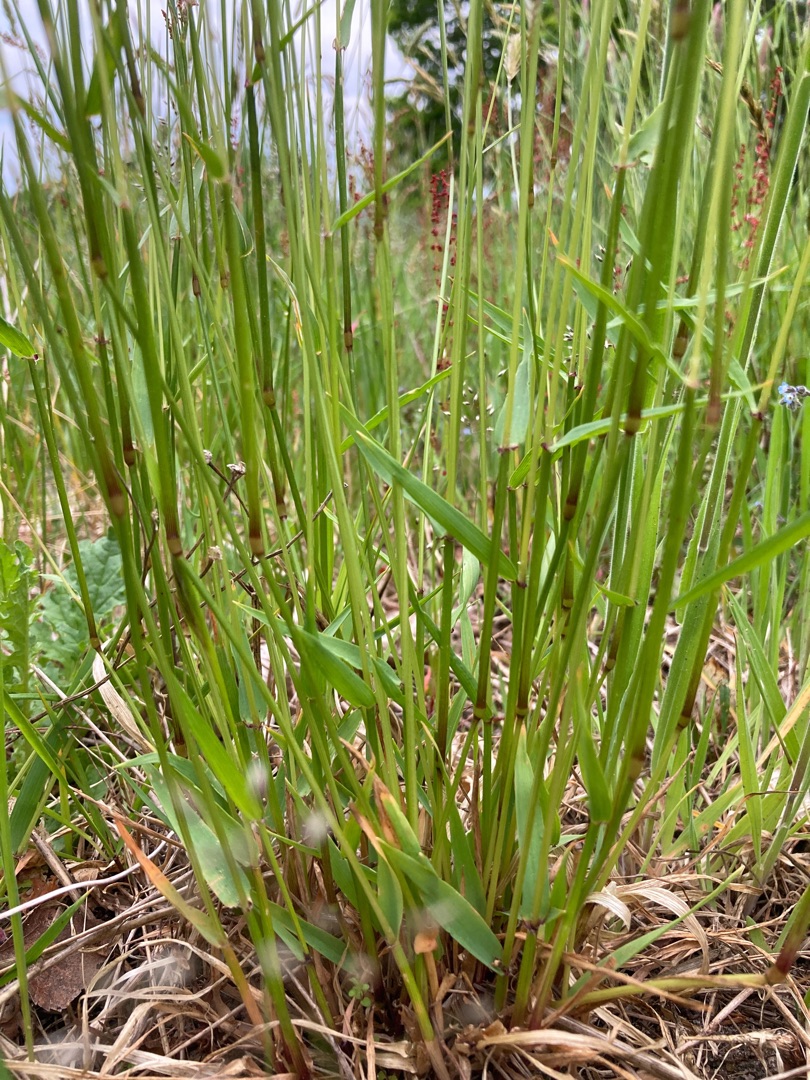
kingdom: Plantae
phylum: Tracheophyta
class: Liliopsida
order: Poales
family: Poaceae
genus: Anthoxanthum
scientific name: Anthoxanthum odoratum
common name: Vellugtende gulaks
